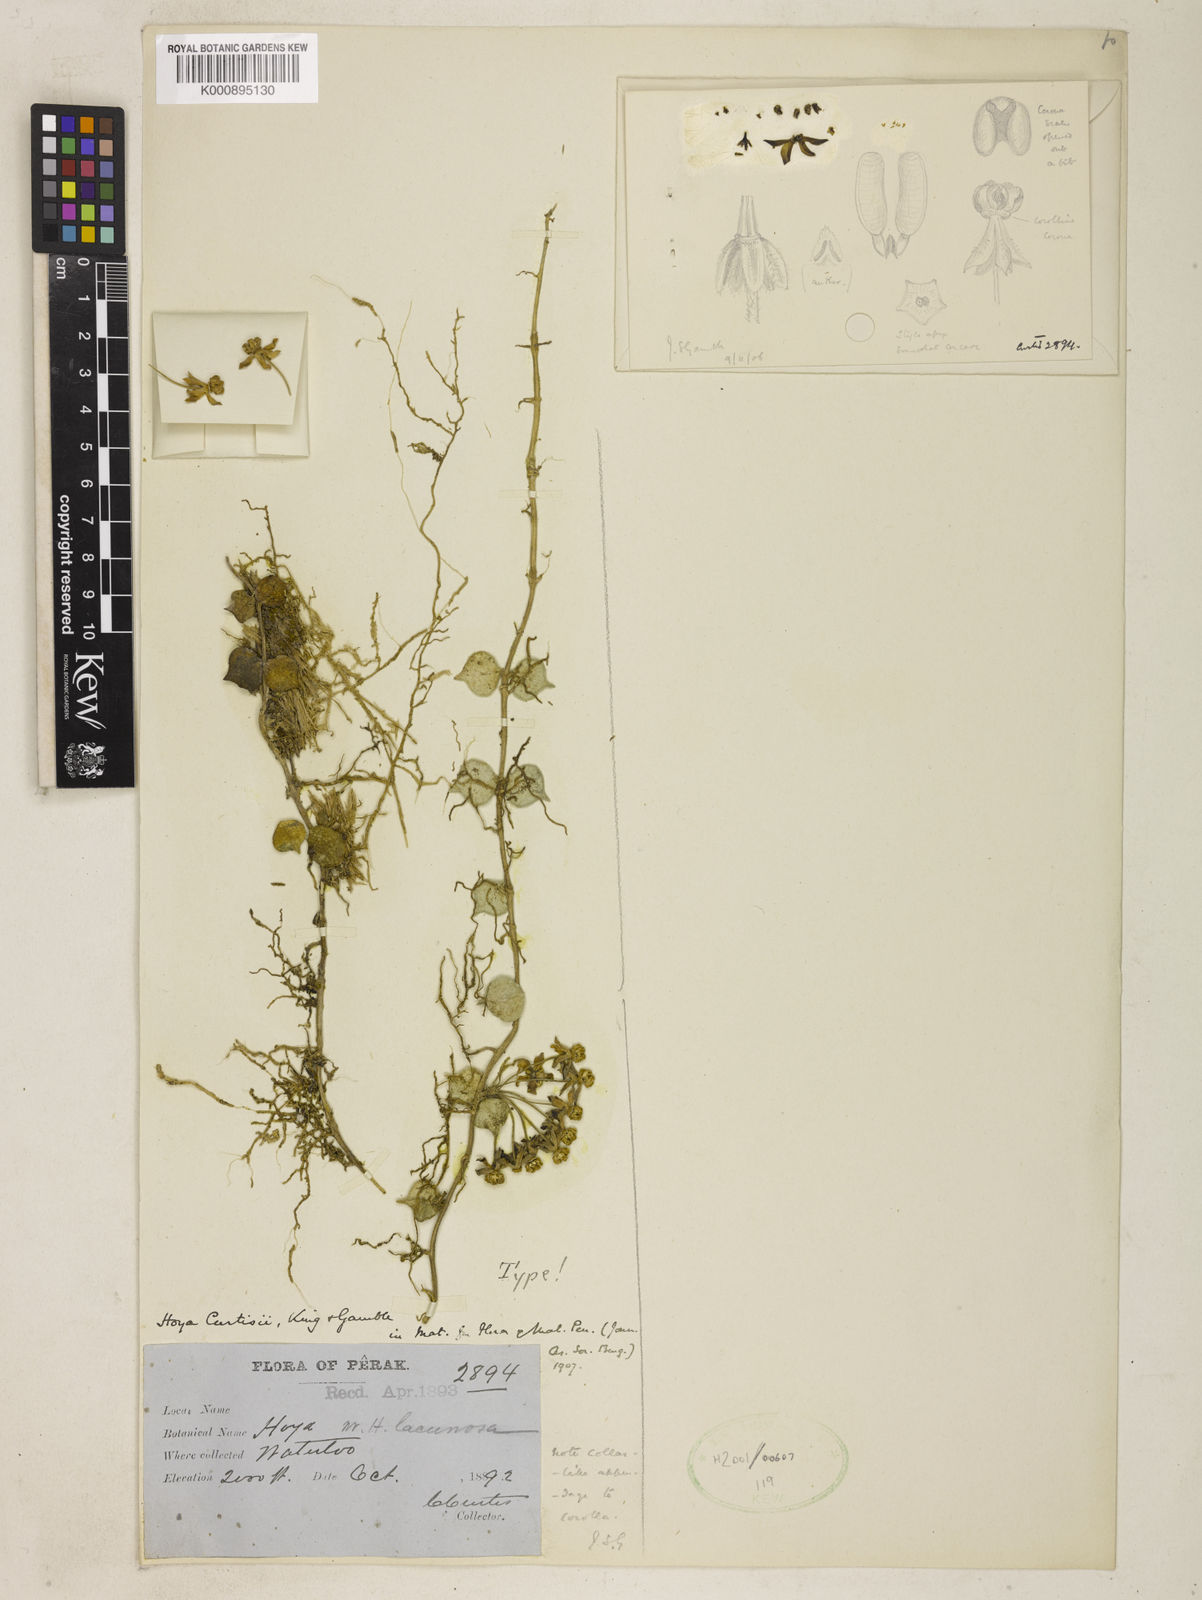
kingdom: Plantae
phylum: Tracheophyta
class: Magnoliopsida
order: Gentianales
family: Apocynaceae
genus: Hoya
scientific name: Hoya curtisii
